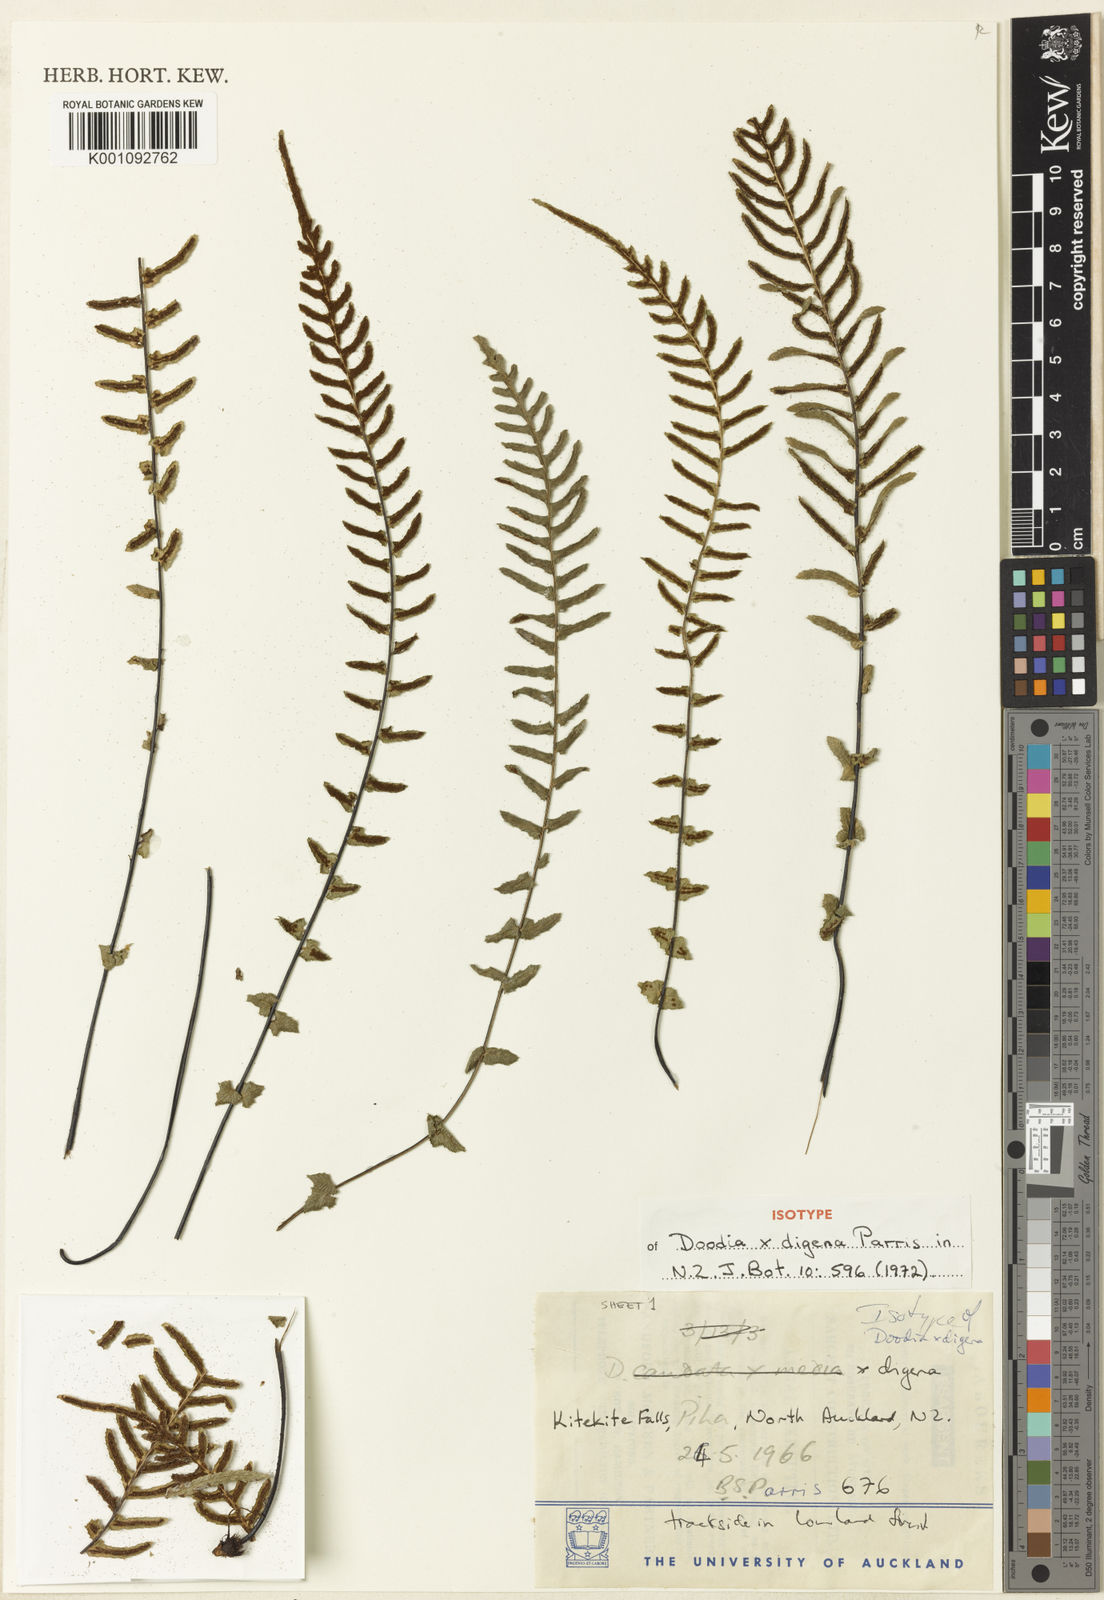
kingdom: Plantae
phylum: Tracheophyta
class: Polypodiopsida
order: Polypodiales
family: Blechnaceae
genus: Doodia
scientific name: Doodia digena
